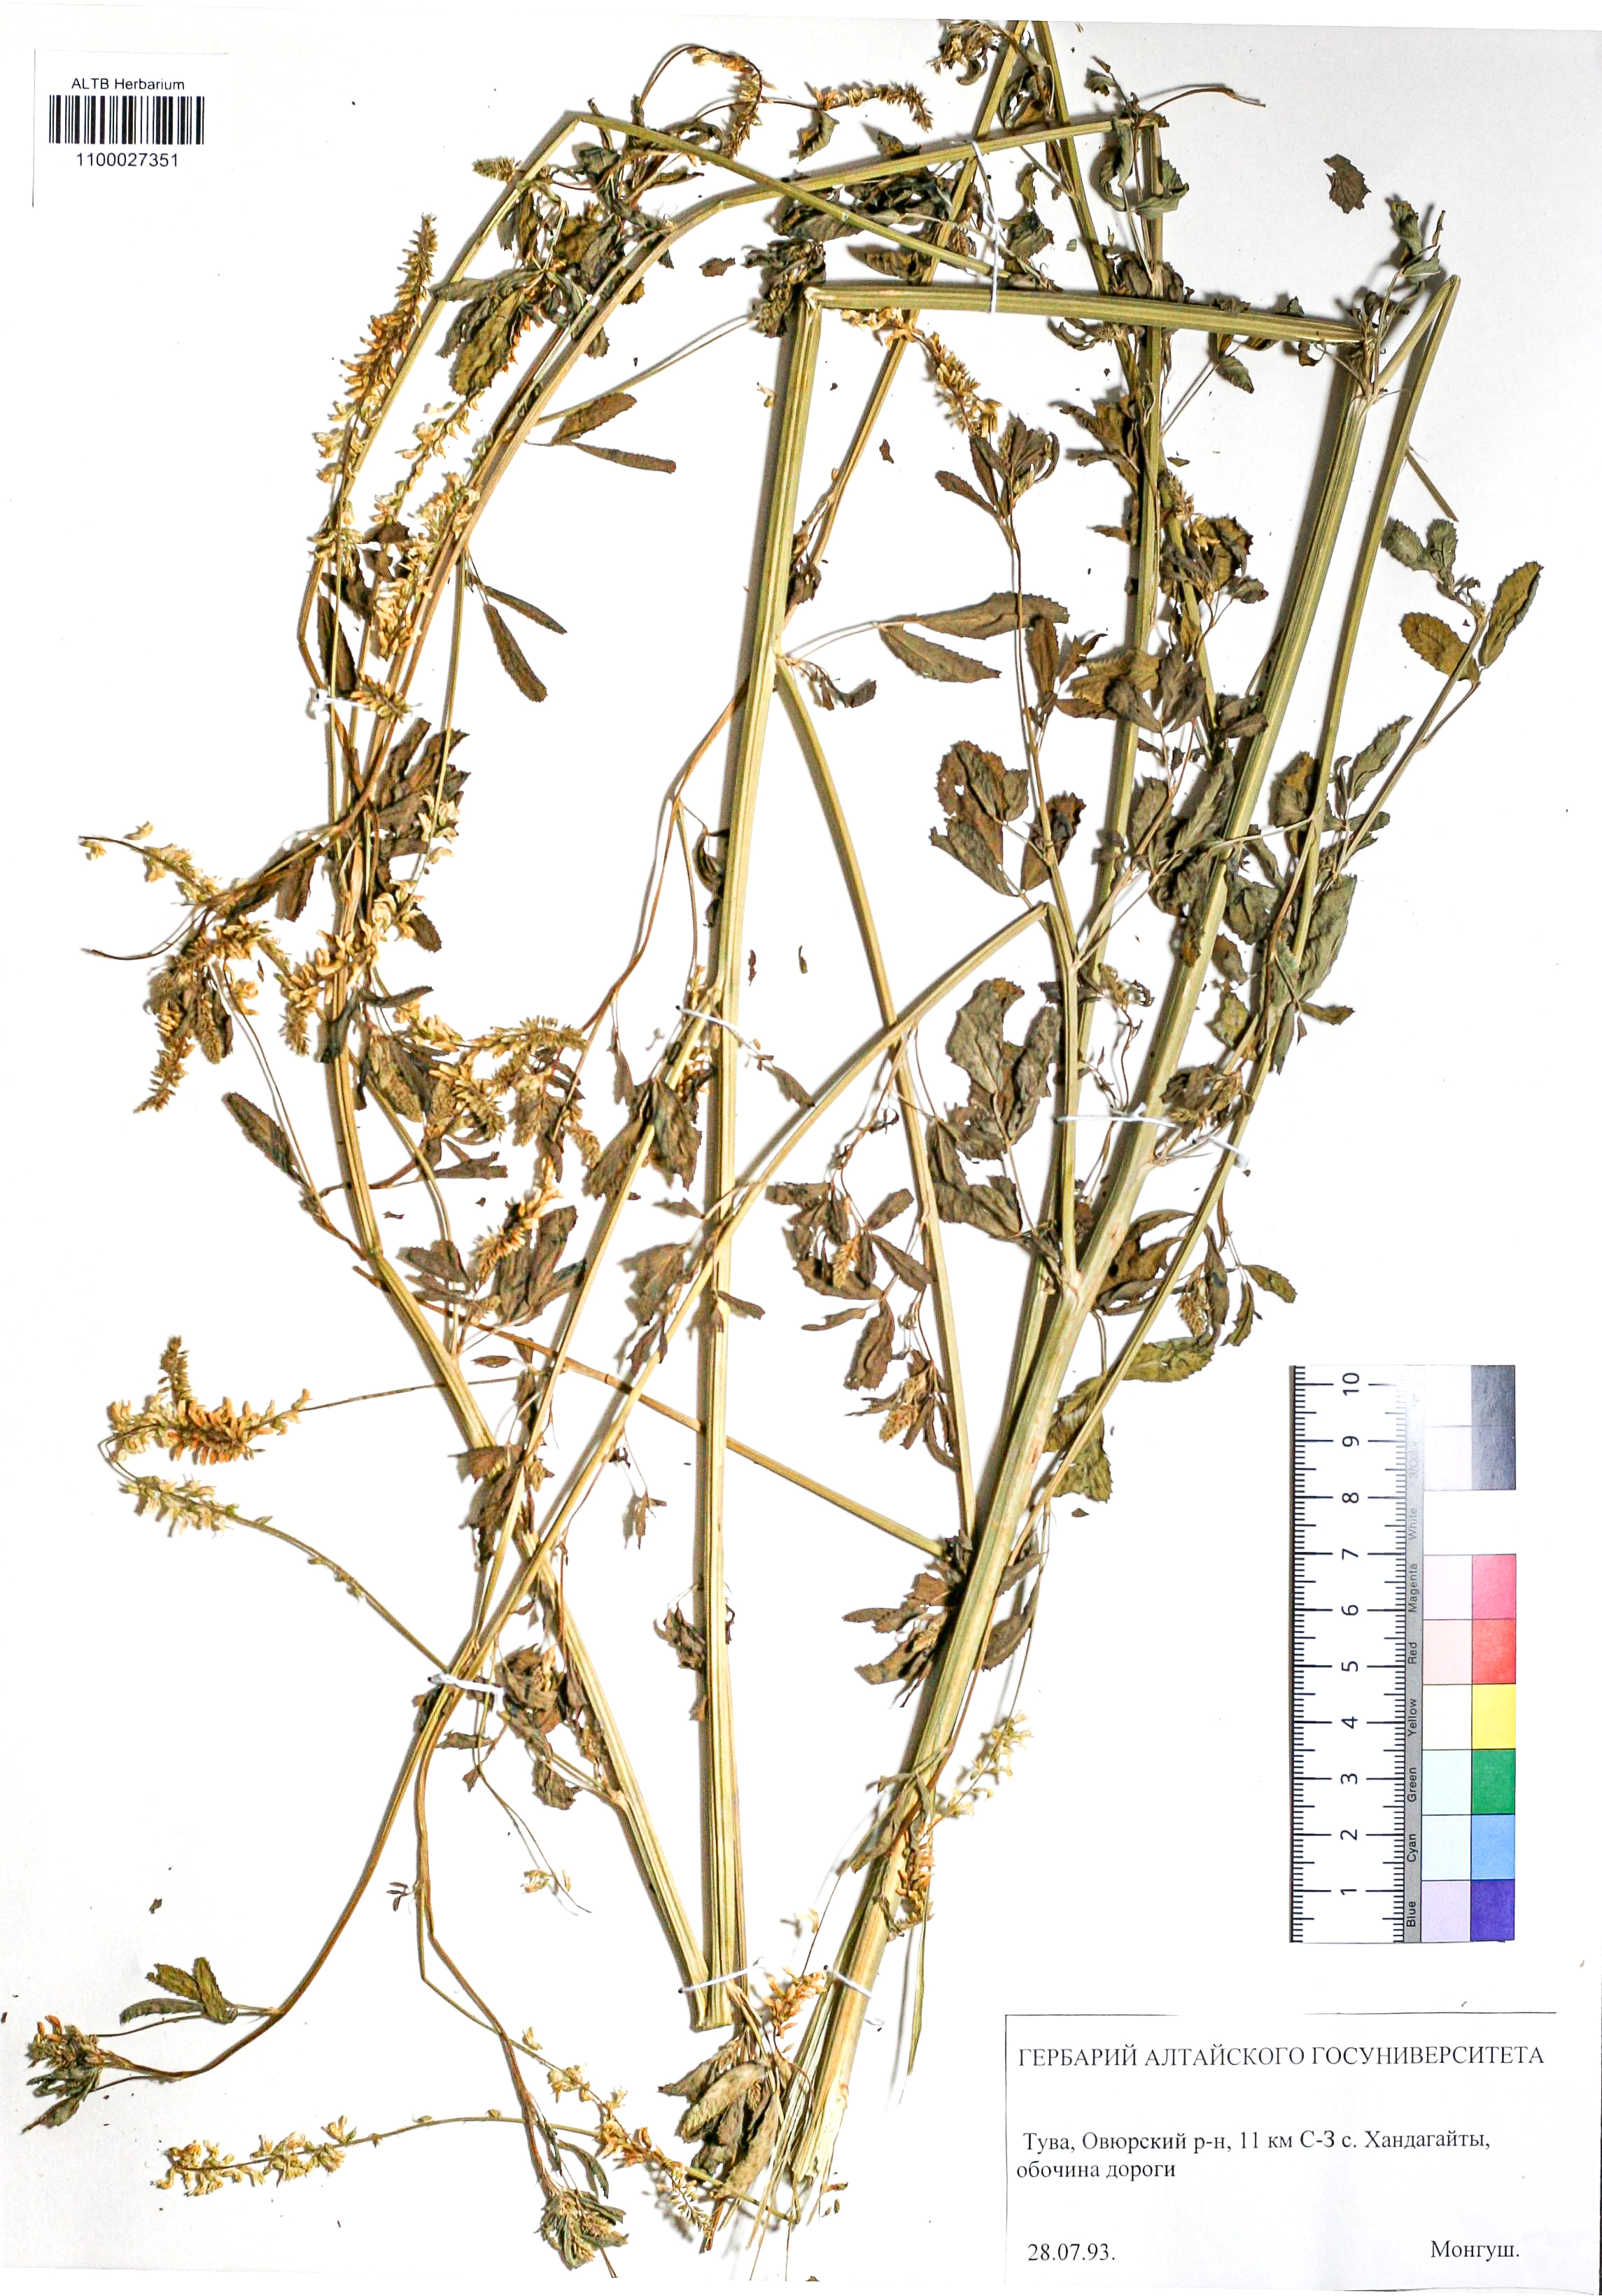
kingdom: Plantae
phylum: Tracheophyta
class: Magnoliopsida
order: Fabales
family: Fabaceae
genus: Melilotus
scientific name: Melilotus albus
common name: White melilot
